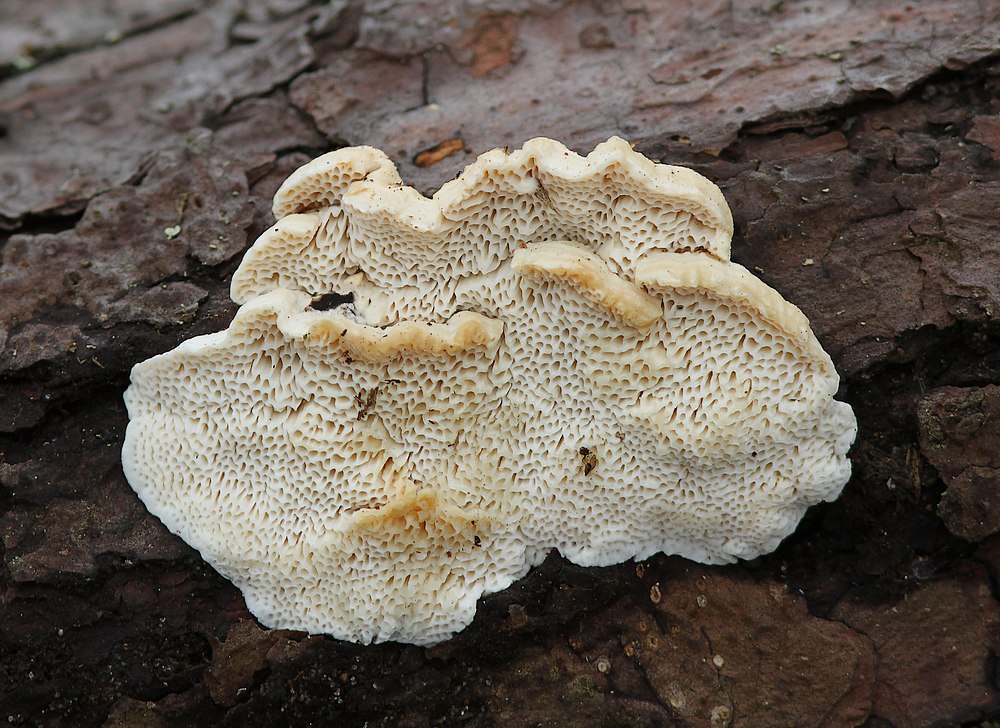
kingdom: Fungi
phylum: Basidiomycota
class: Agaricomycetes
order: Polyporales
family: Fomitopsidaceae
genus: Fomitopsis
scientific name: Fomitopsis
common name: fyrre-skiveporesvamp
